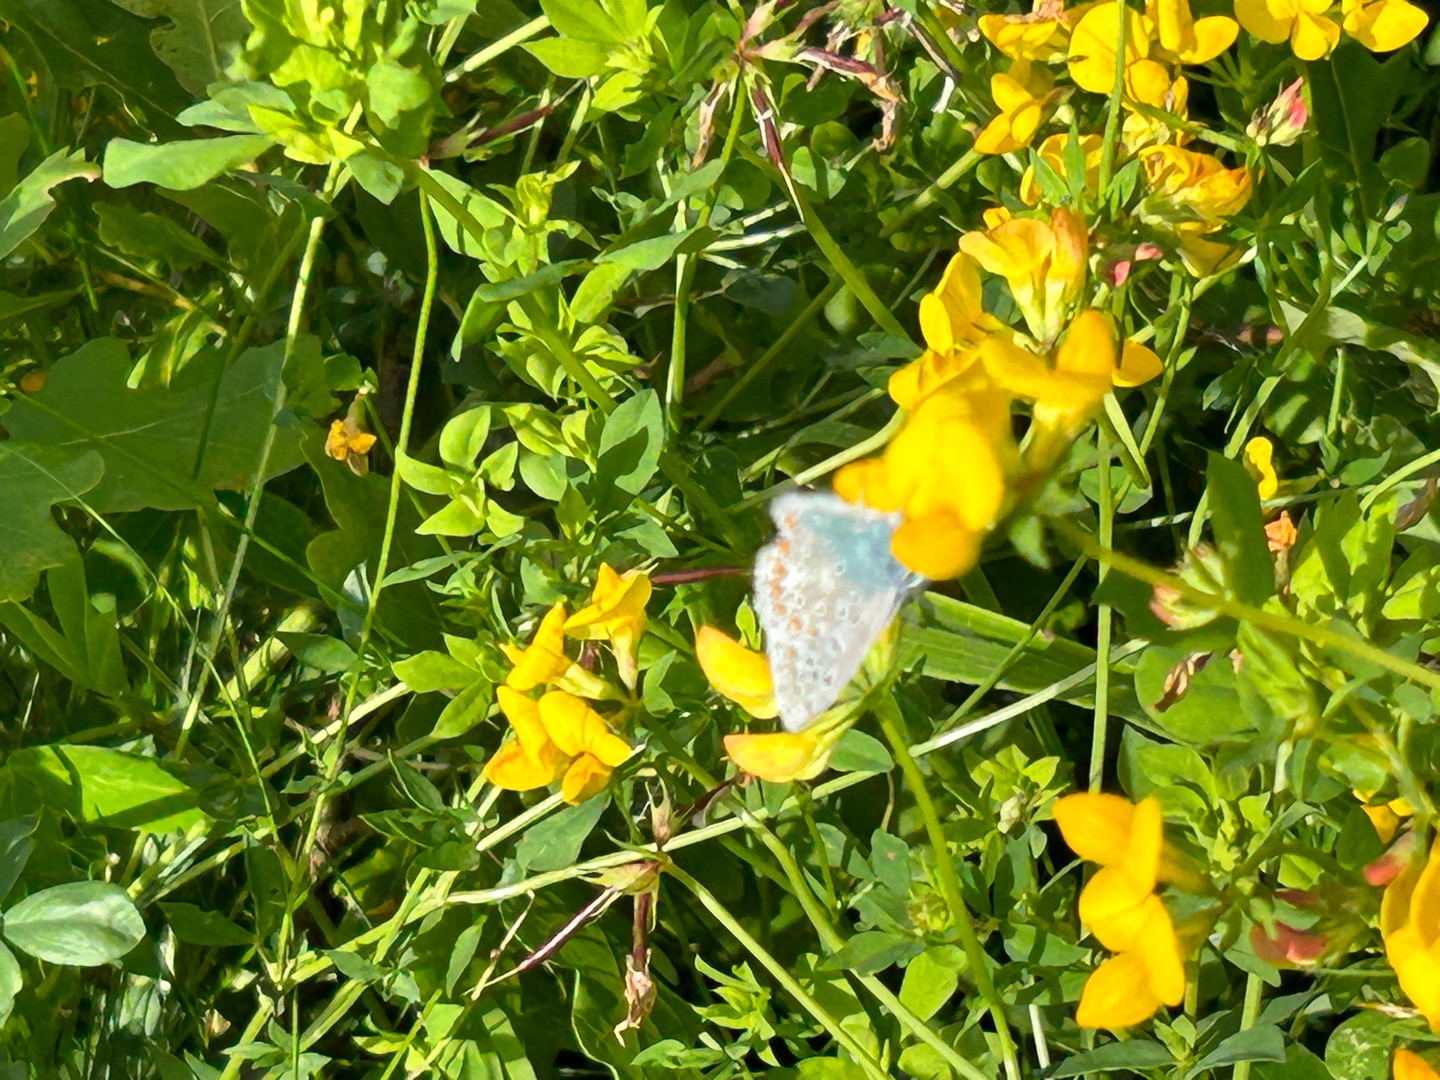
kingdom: Animalia
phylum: Arthropoda
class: Insecta
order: Lepidoptera
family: Lycaenidae
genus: Polyommatus
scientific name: Polyommatus icarus
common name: Almindelig blåfugl
